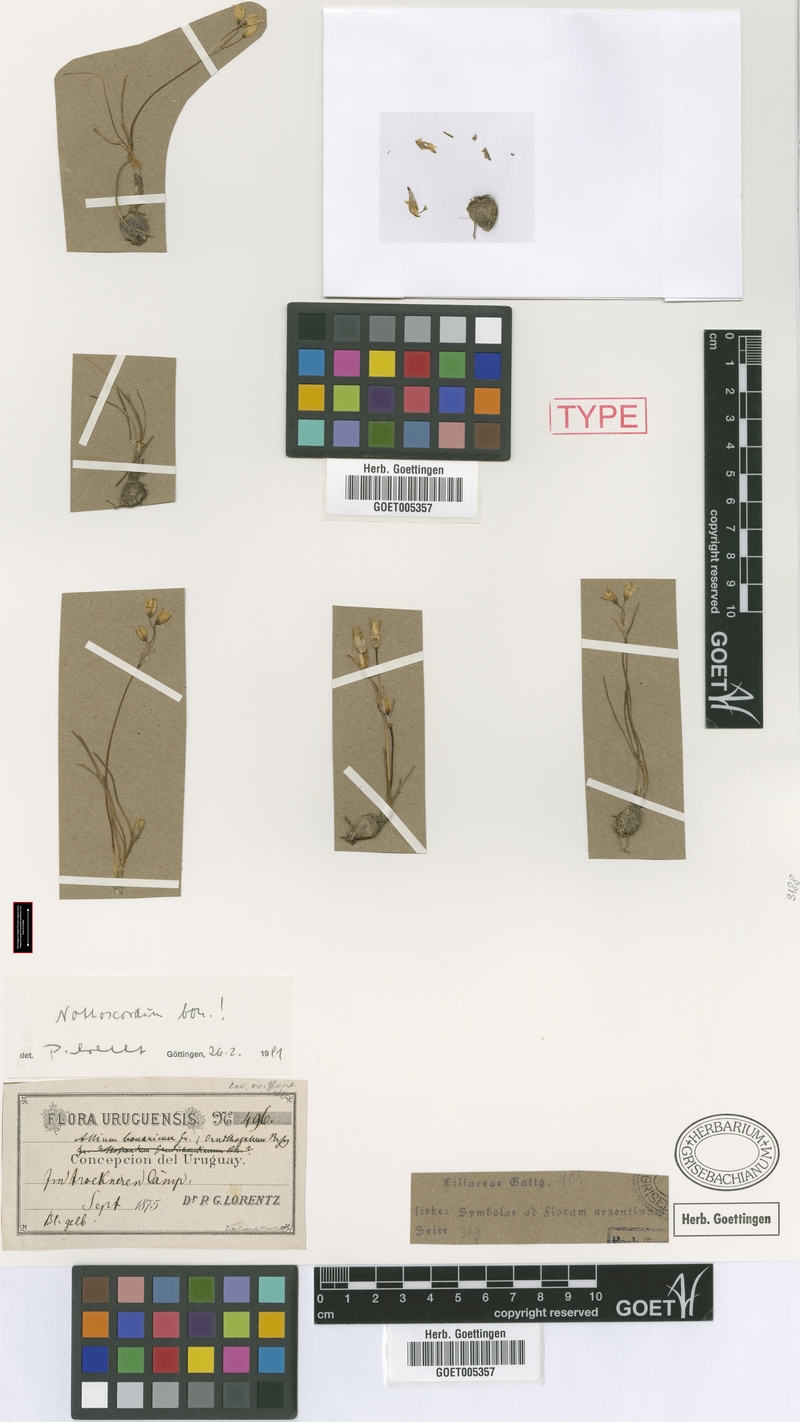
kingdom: Plantae
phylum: Tracheophyta
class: Liliopsida
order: Asparagales
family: Amaryllidaceae
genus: Nothoscordum
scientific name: Nothoscordum montevidense
